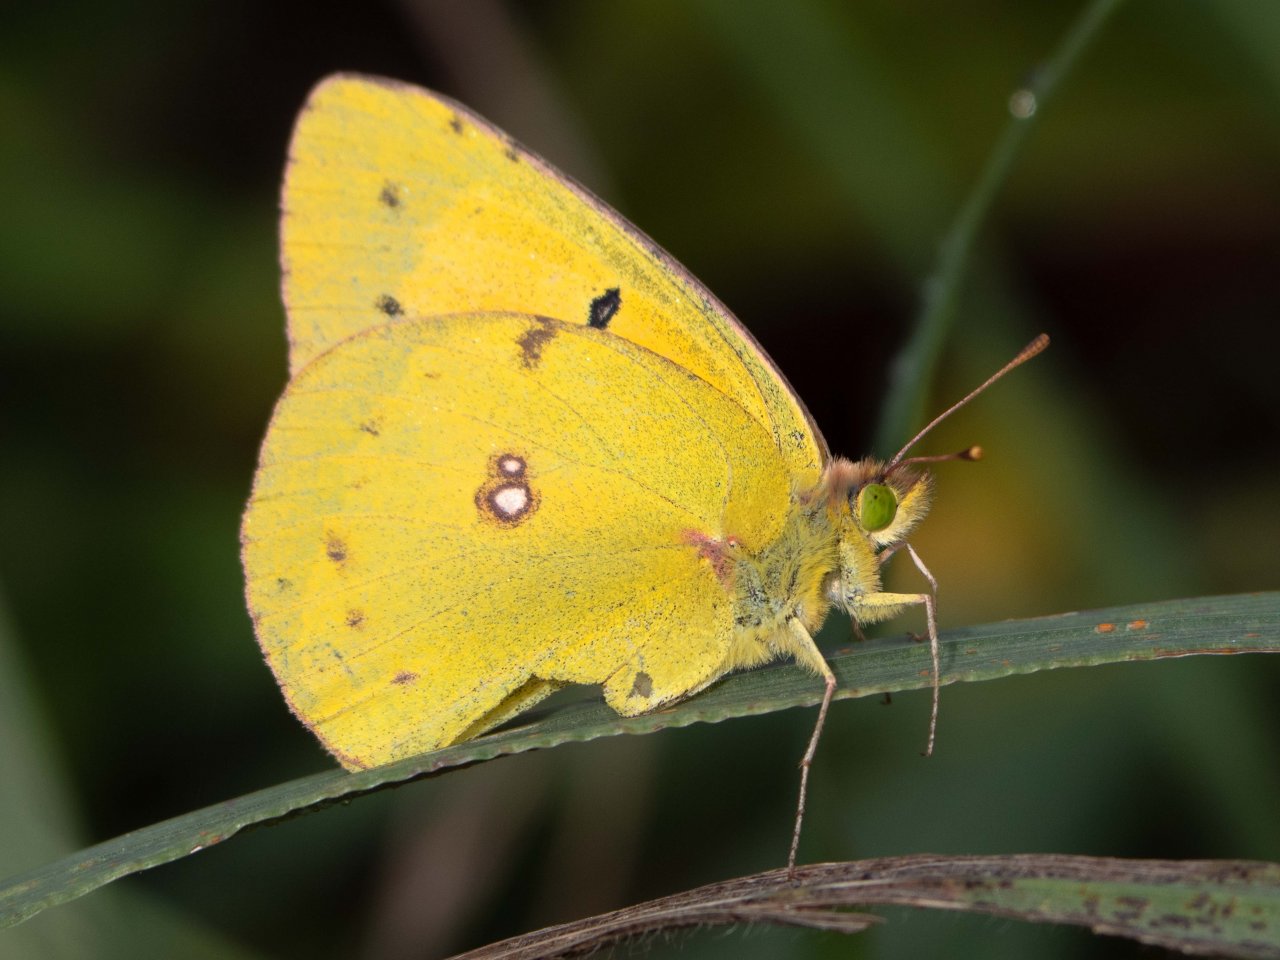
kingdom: Animalia
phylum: Arthropoda
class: Insecta
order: Lepidoptera
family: Pieridae
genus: Colias
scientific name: Colias eurytheme
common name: Orange Sulphur
